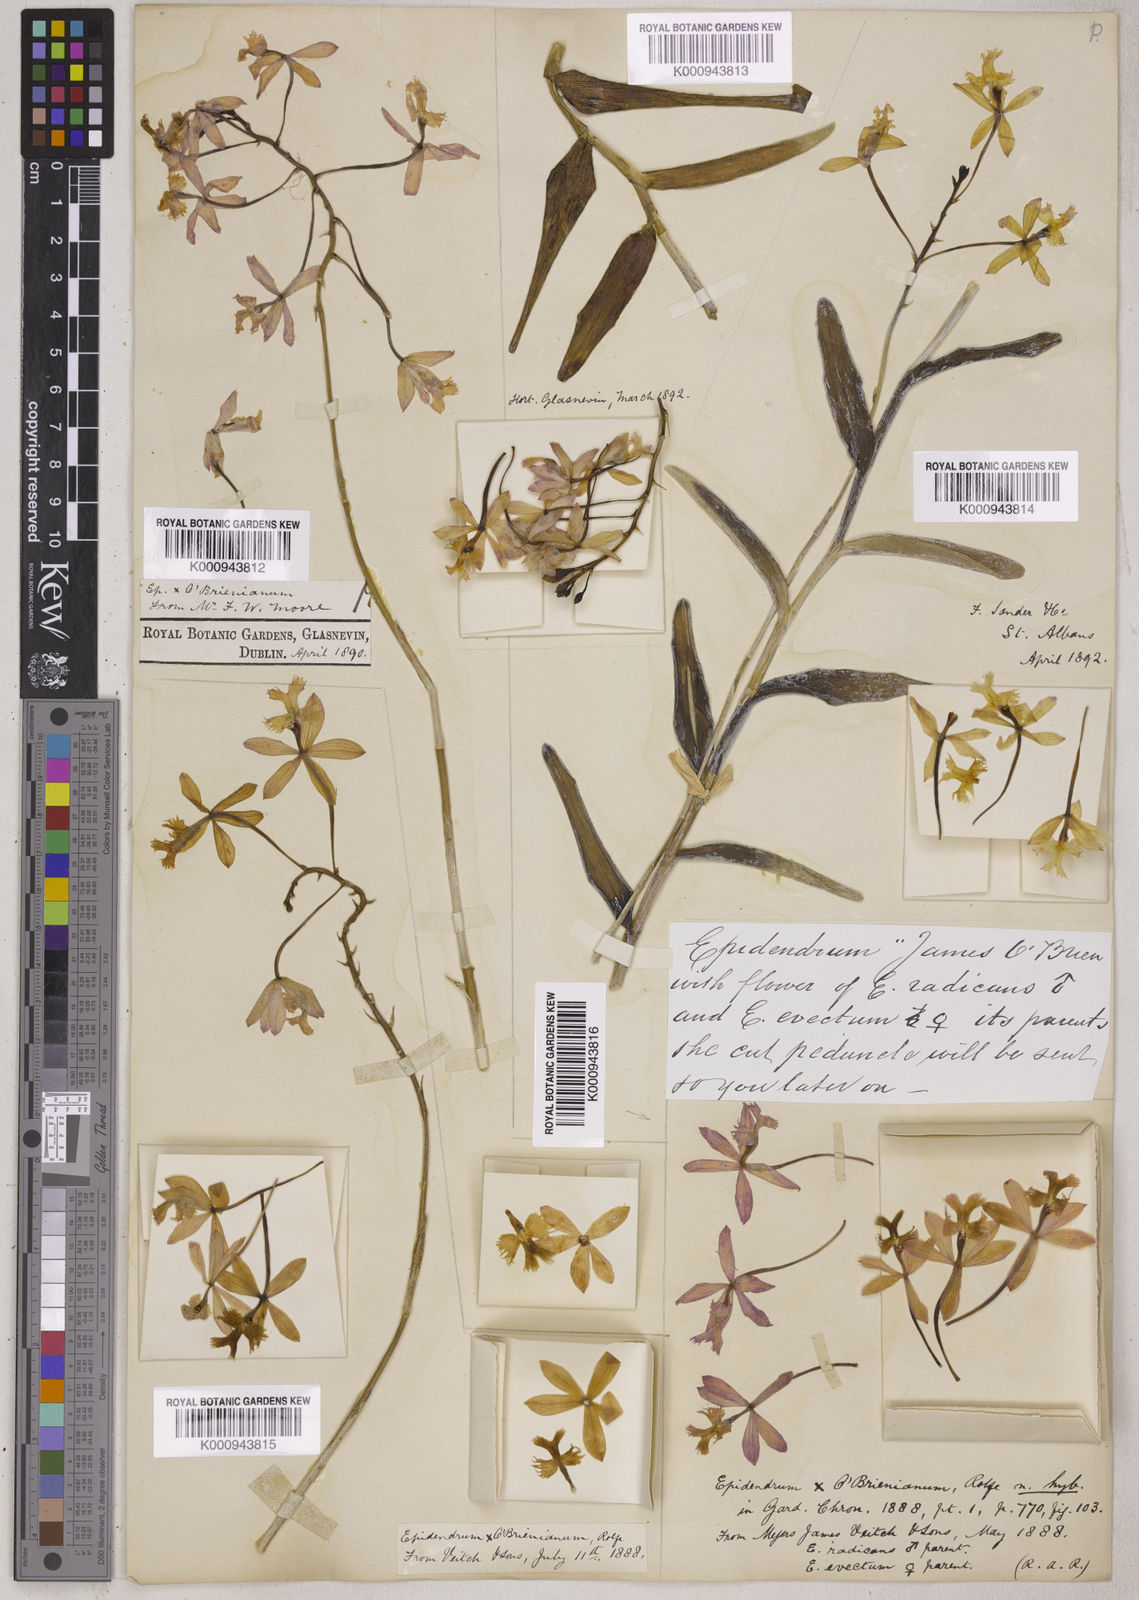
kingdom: Plantae
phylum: Tracheophyta
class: Liliopsida
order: Asparagales
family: Orchidaceae
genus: Epidendrum
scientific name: Epidendrum
